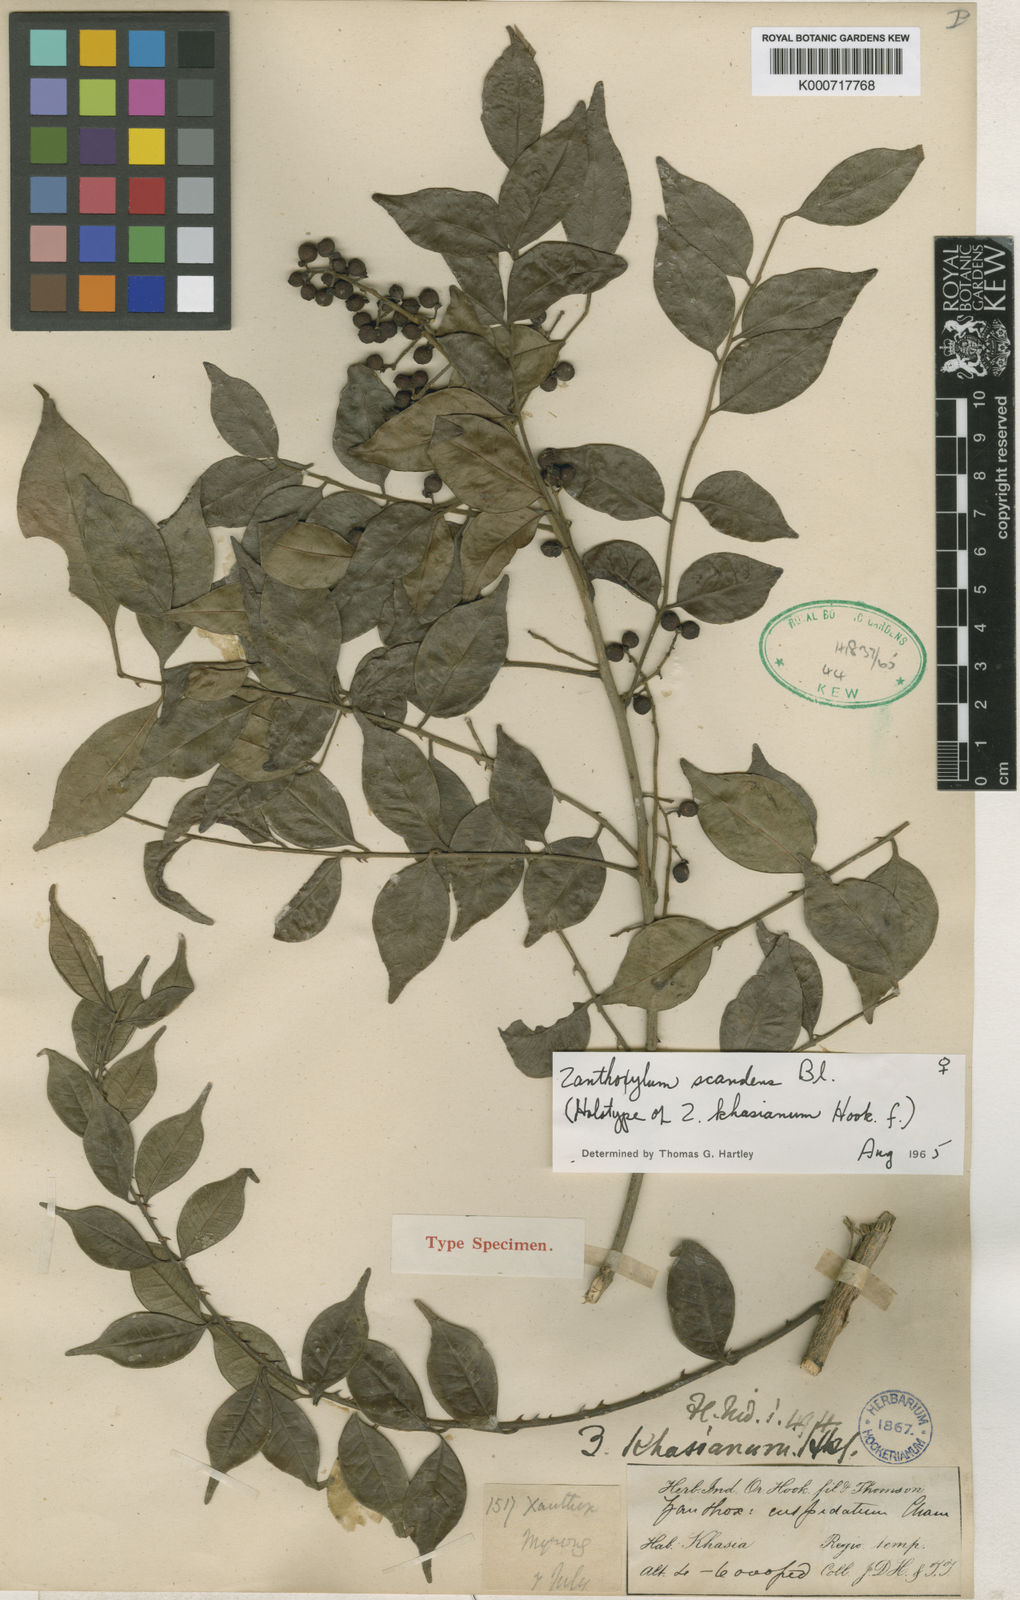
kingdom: Plantae
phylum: Tracheophyta
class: Magnoliopsida
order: Sapindales
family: Rutaceae
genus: Zanthoxylum
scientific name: Zanthoxylum scandens
